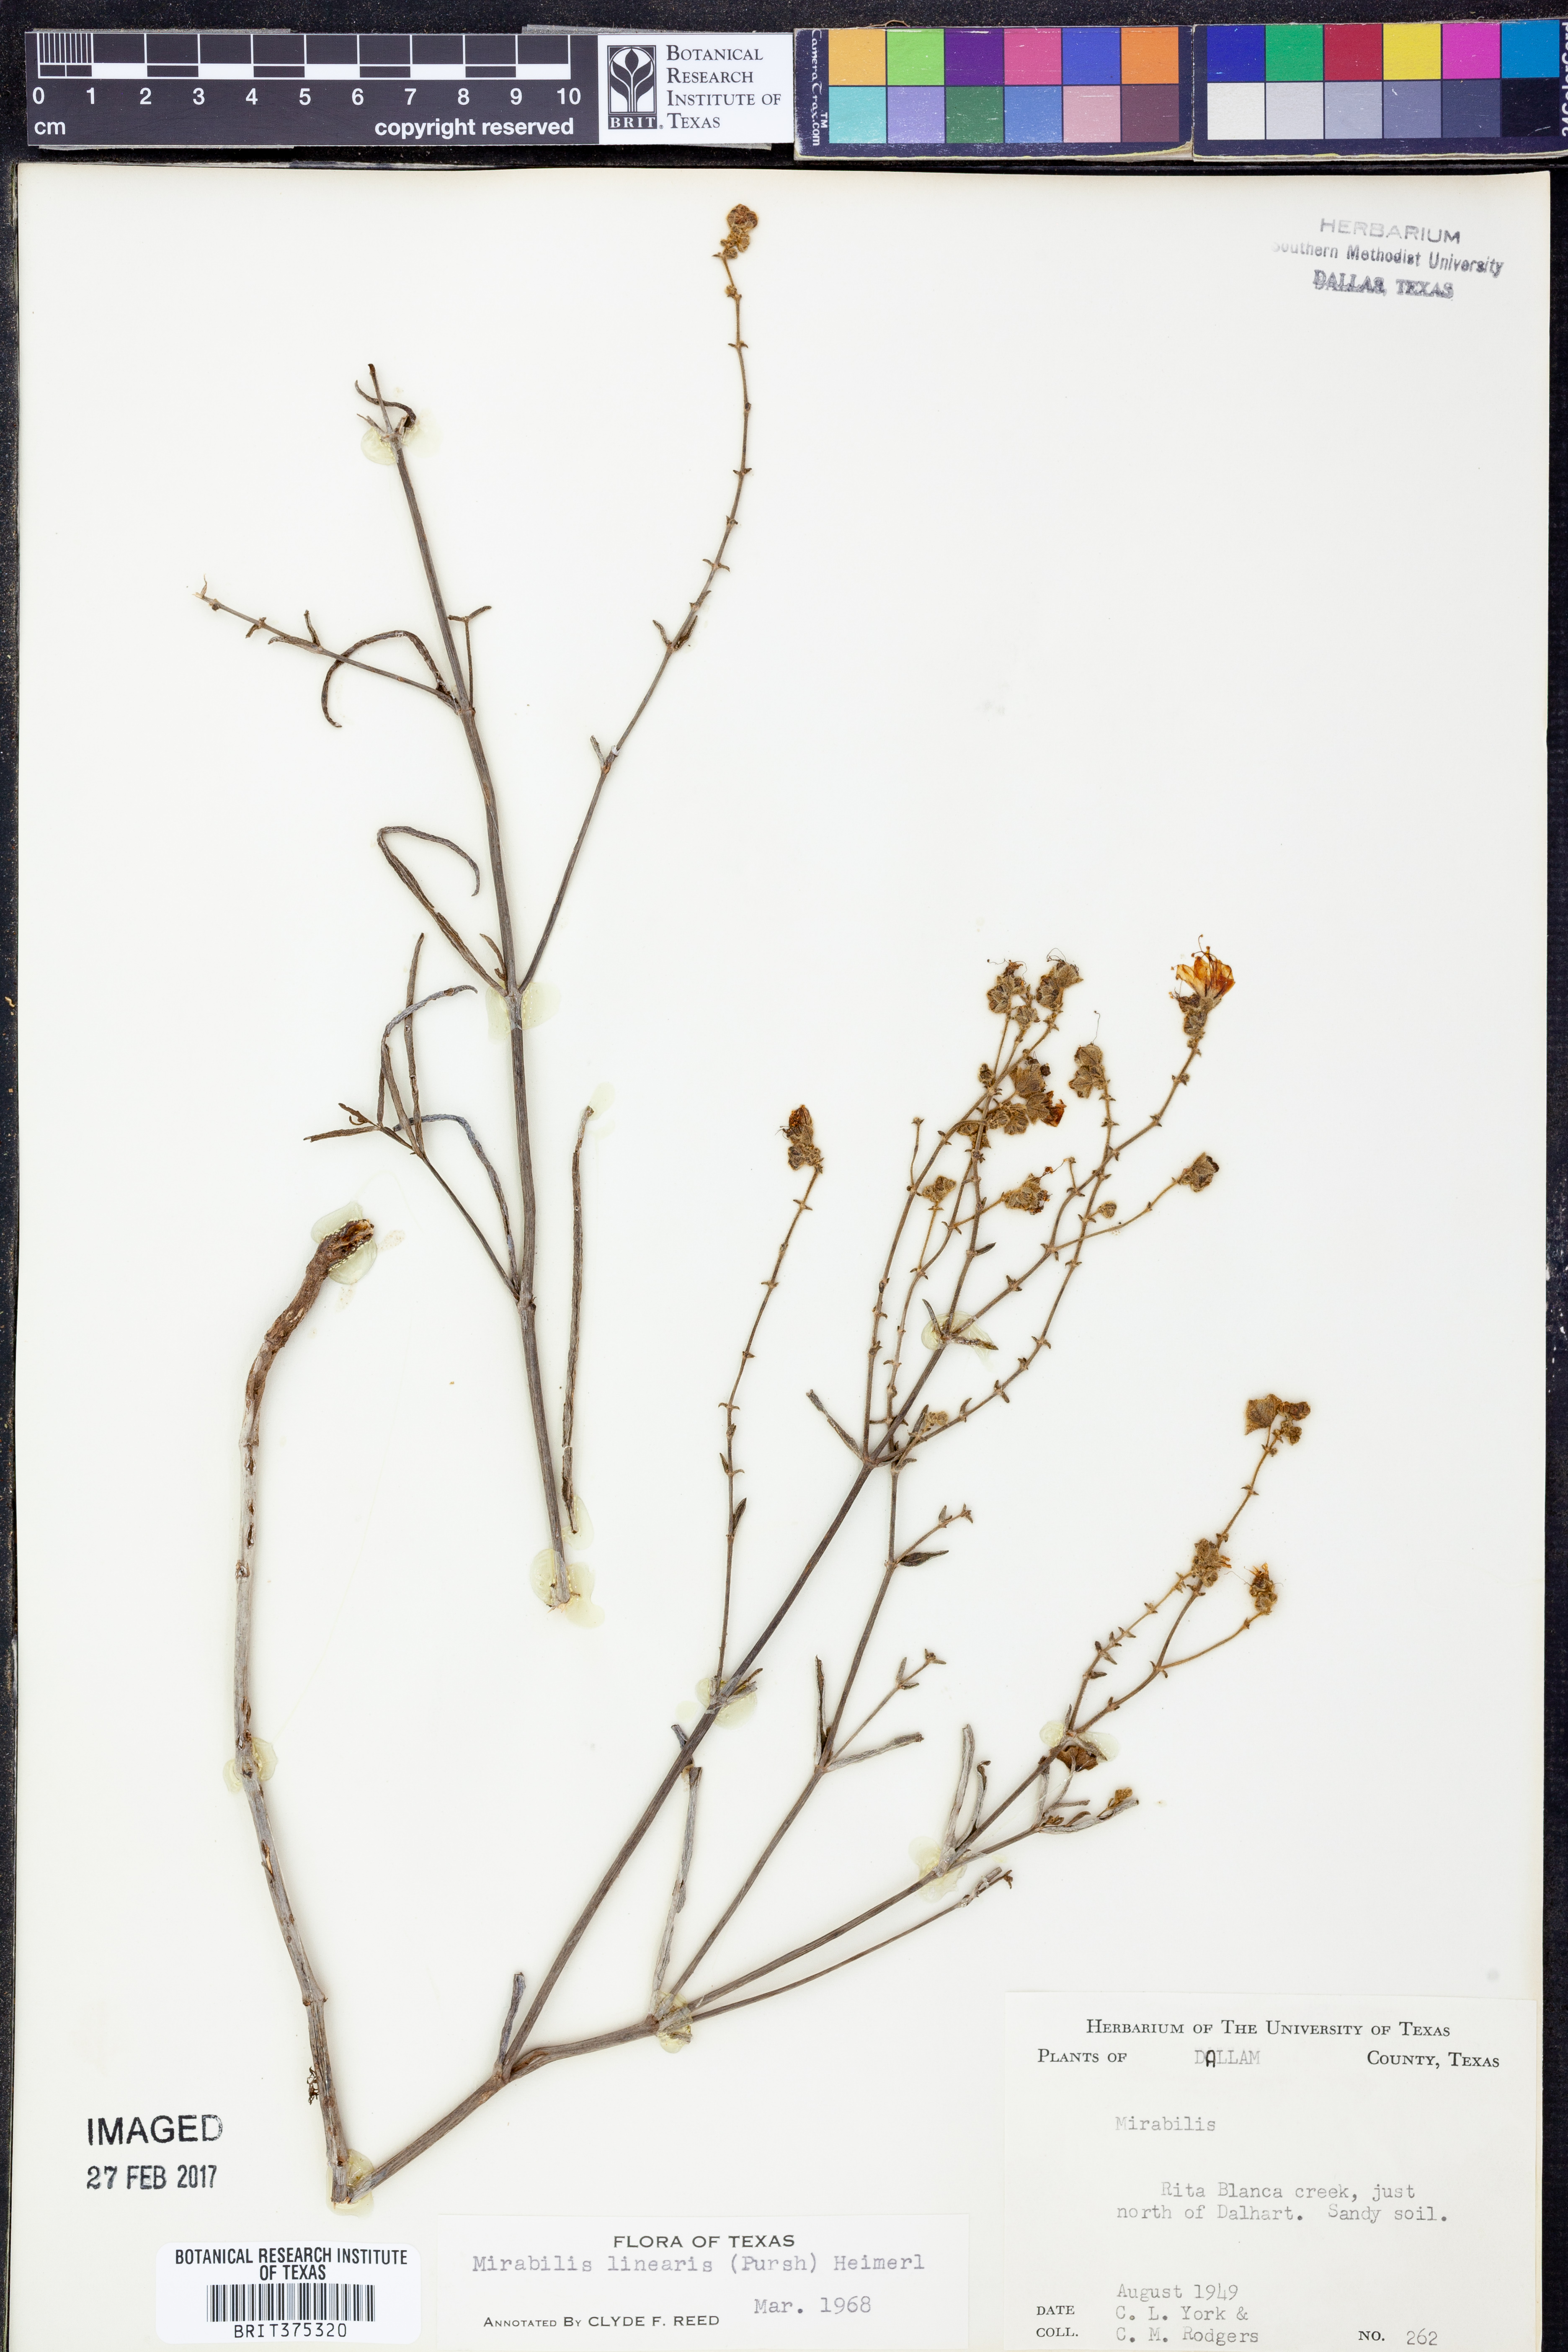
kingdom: Plantae
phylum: Tracheophyta
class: Magnoliopsida
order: Caryophyllales
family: Nyctaginaceae
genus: Mirabilis
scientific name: Mirabilis linearis
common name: Linear-leaved four-o'clock
